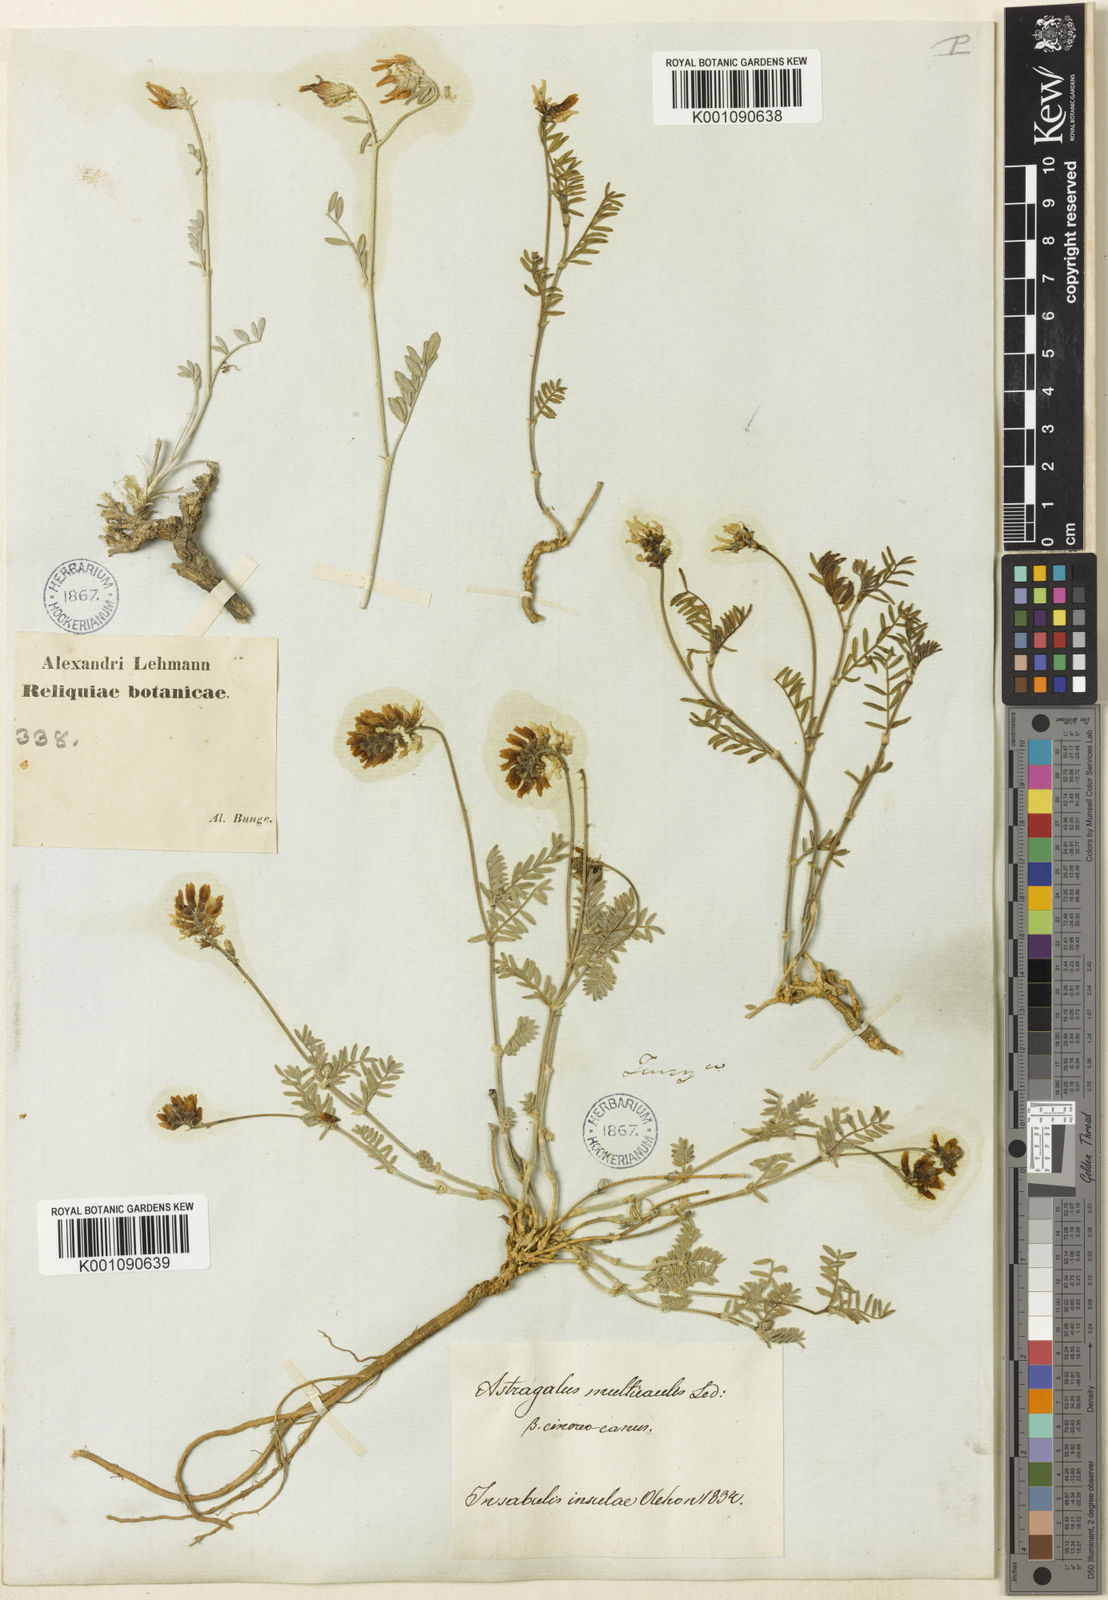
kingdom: Plantae
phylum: Tracheophyta
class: Magnoliopsida
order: Fabales
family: Fabaceae
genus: Astragalus
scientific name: Astragalus
